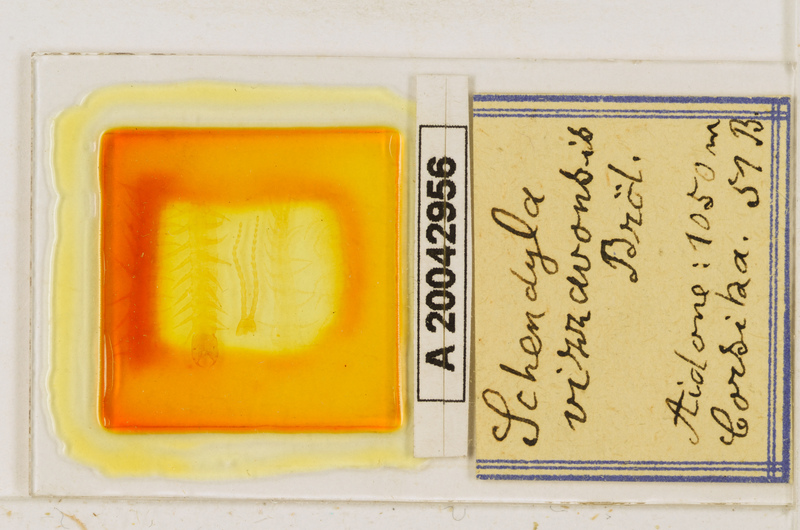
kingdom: Animalia
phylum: Arthropoda
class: Chilopoda
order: Geophilomorpha
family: Schendylidae
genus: Schendyla
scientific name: Schendyla vizzavonae
